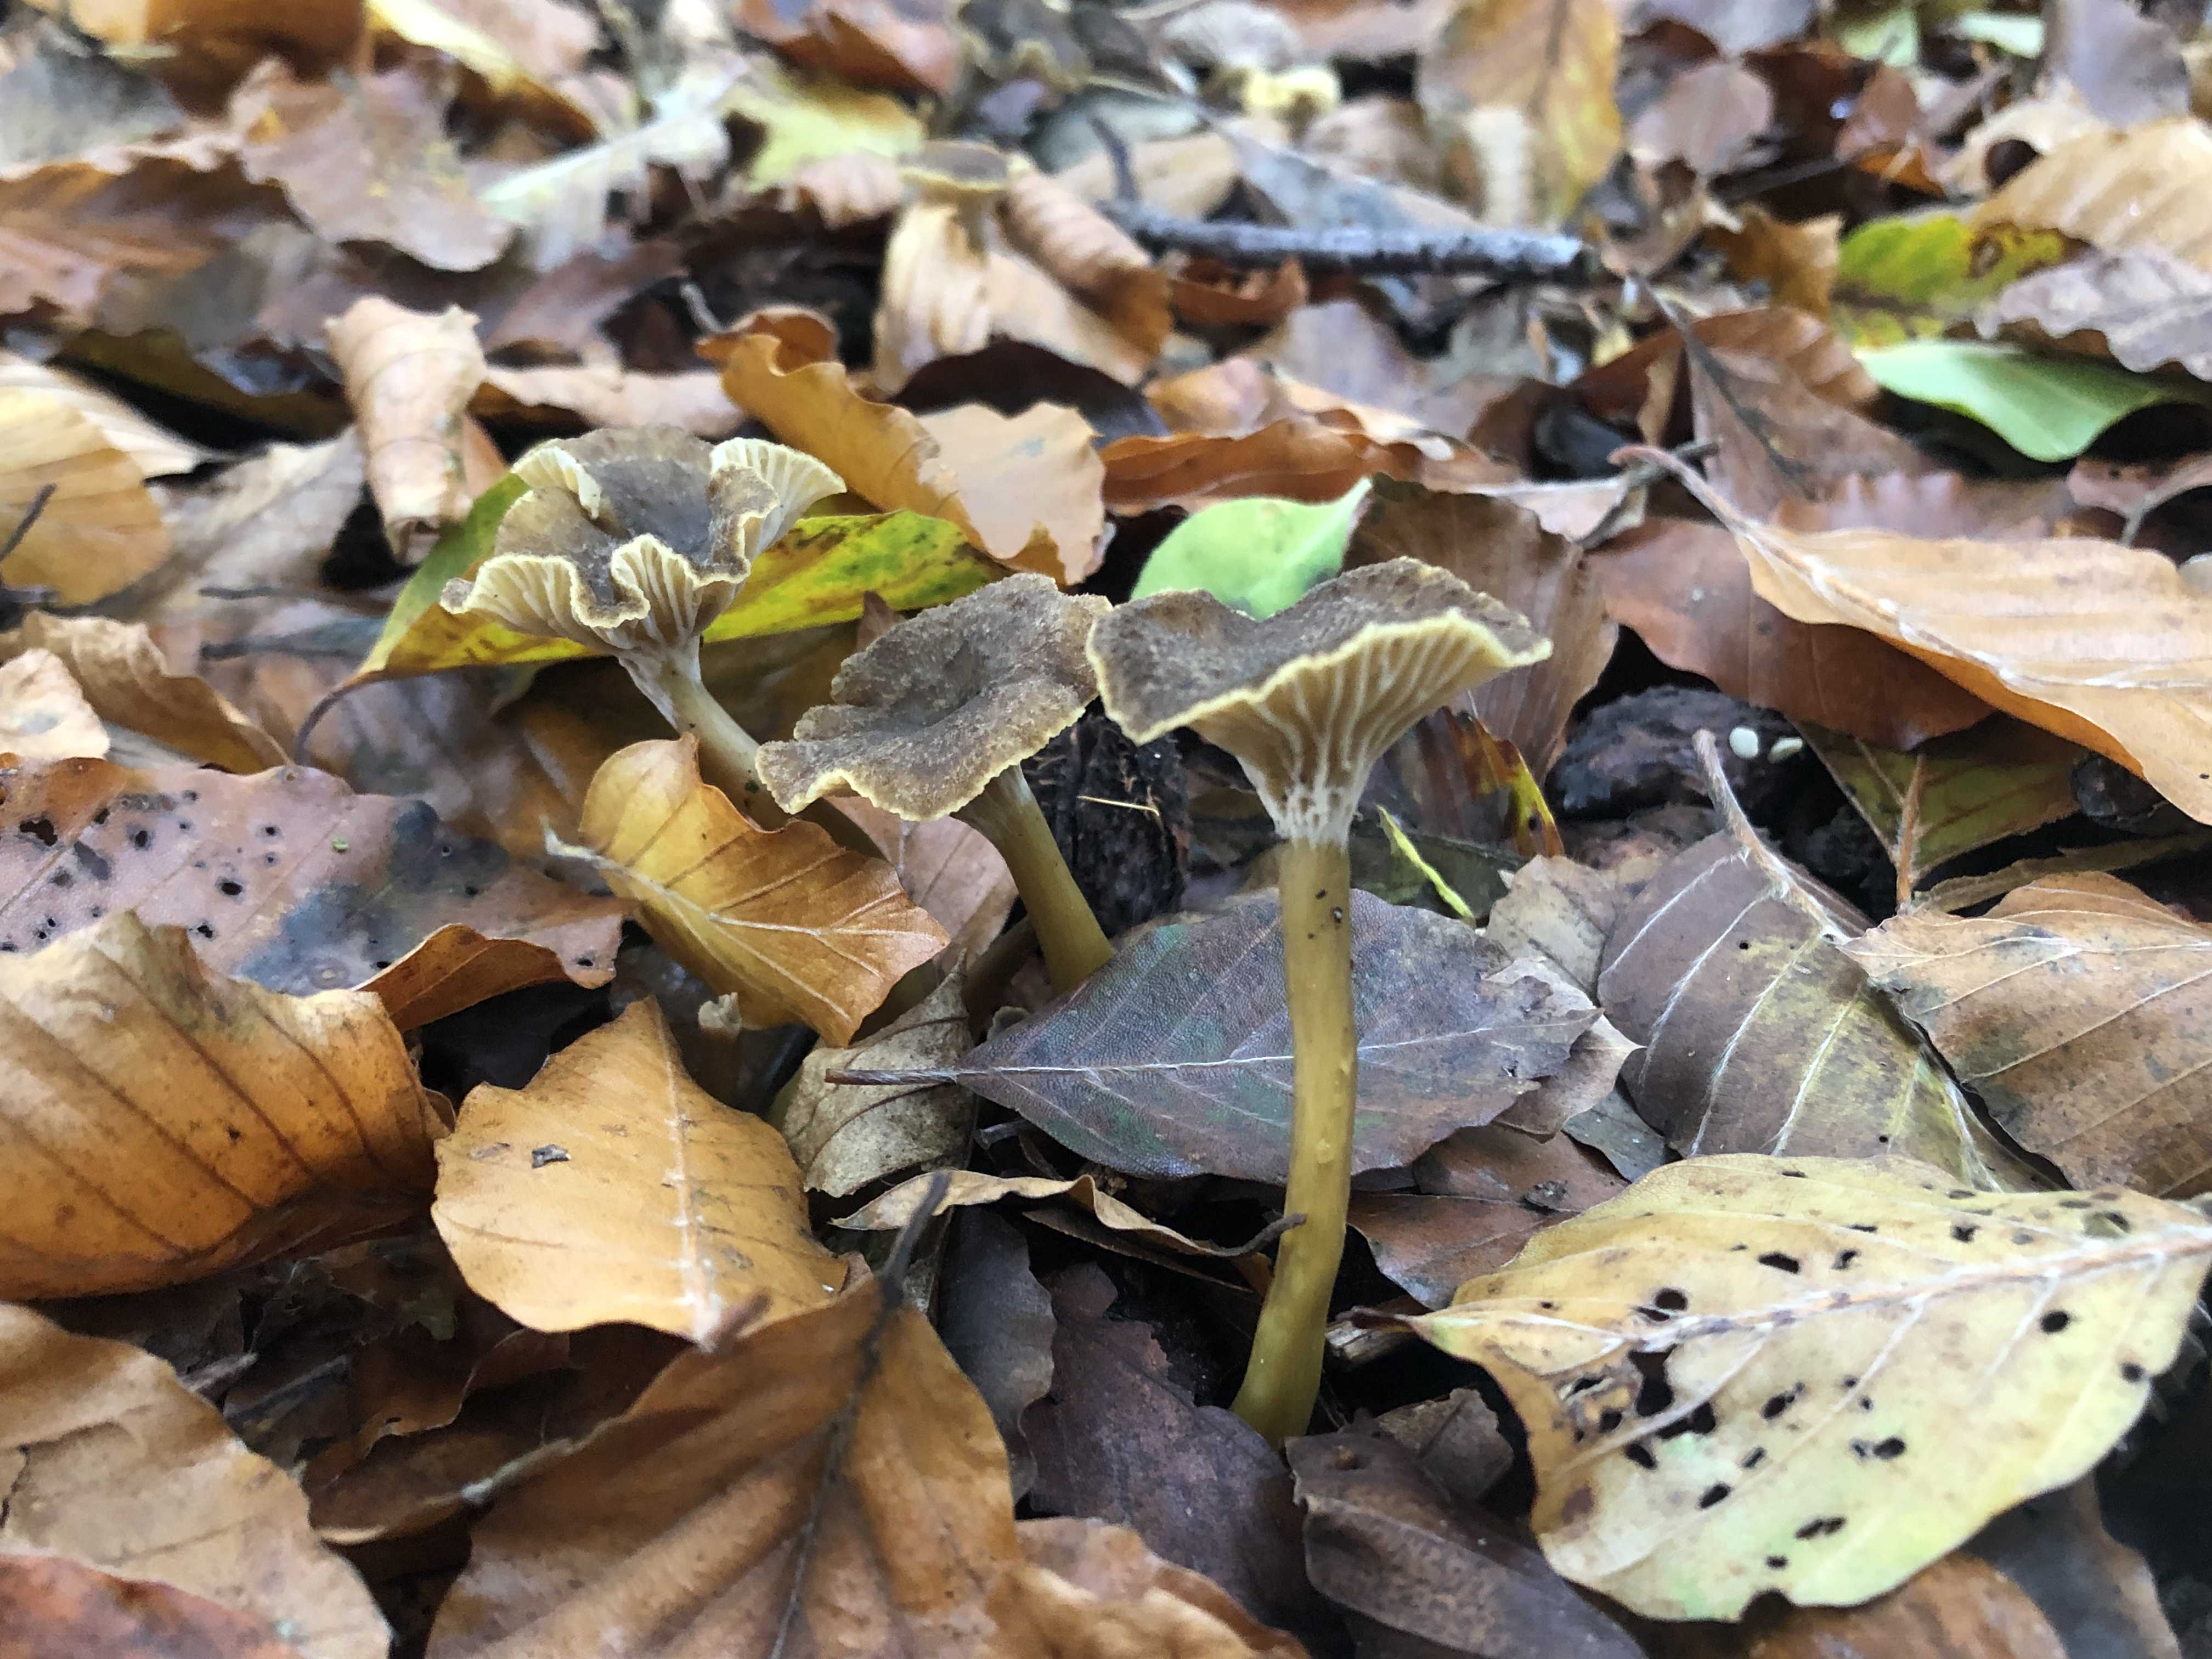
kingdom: Fungi
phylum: Basidiomycota
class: Agaricomycetes
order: Cantharellales
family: Hydnaceae
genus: Craterellus
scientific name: Craterellus tubaeformis
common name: tragt-kantarel
